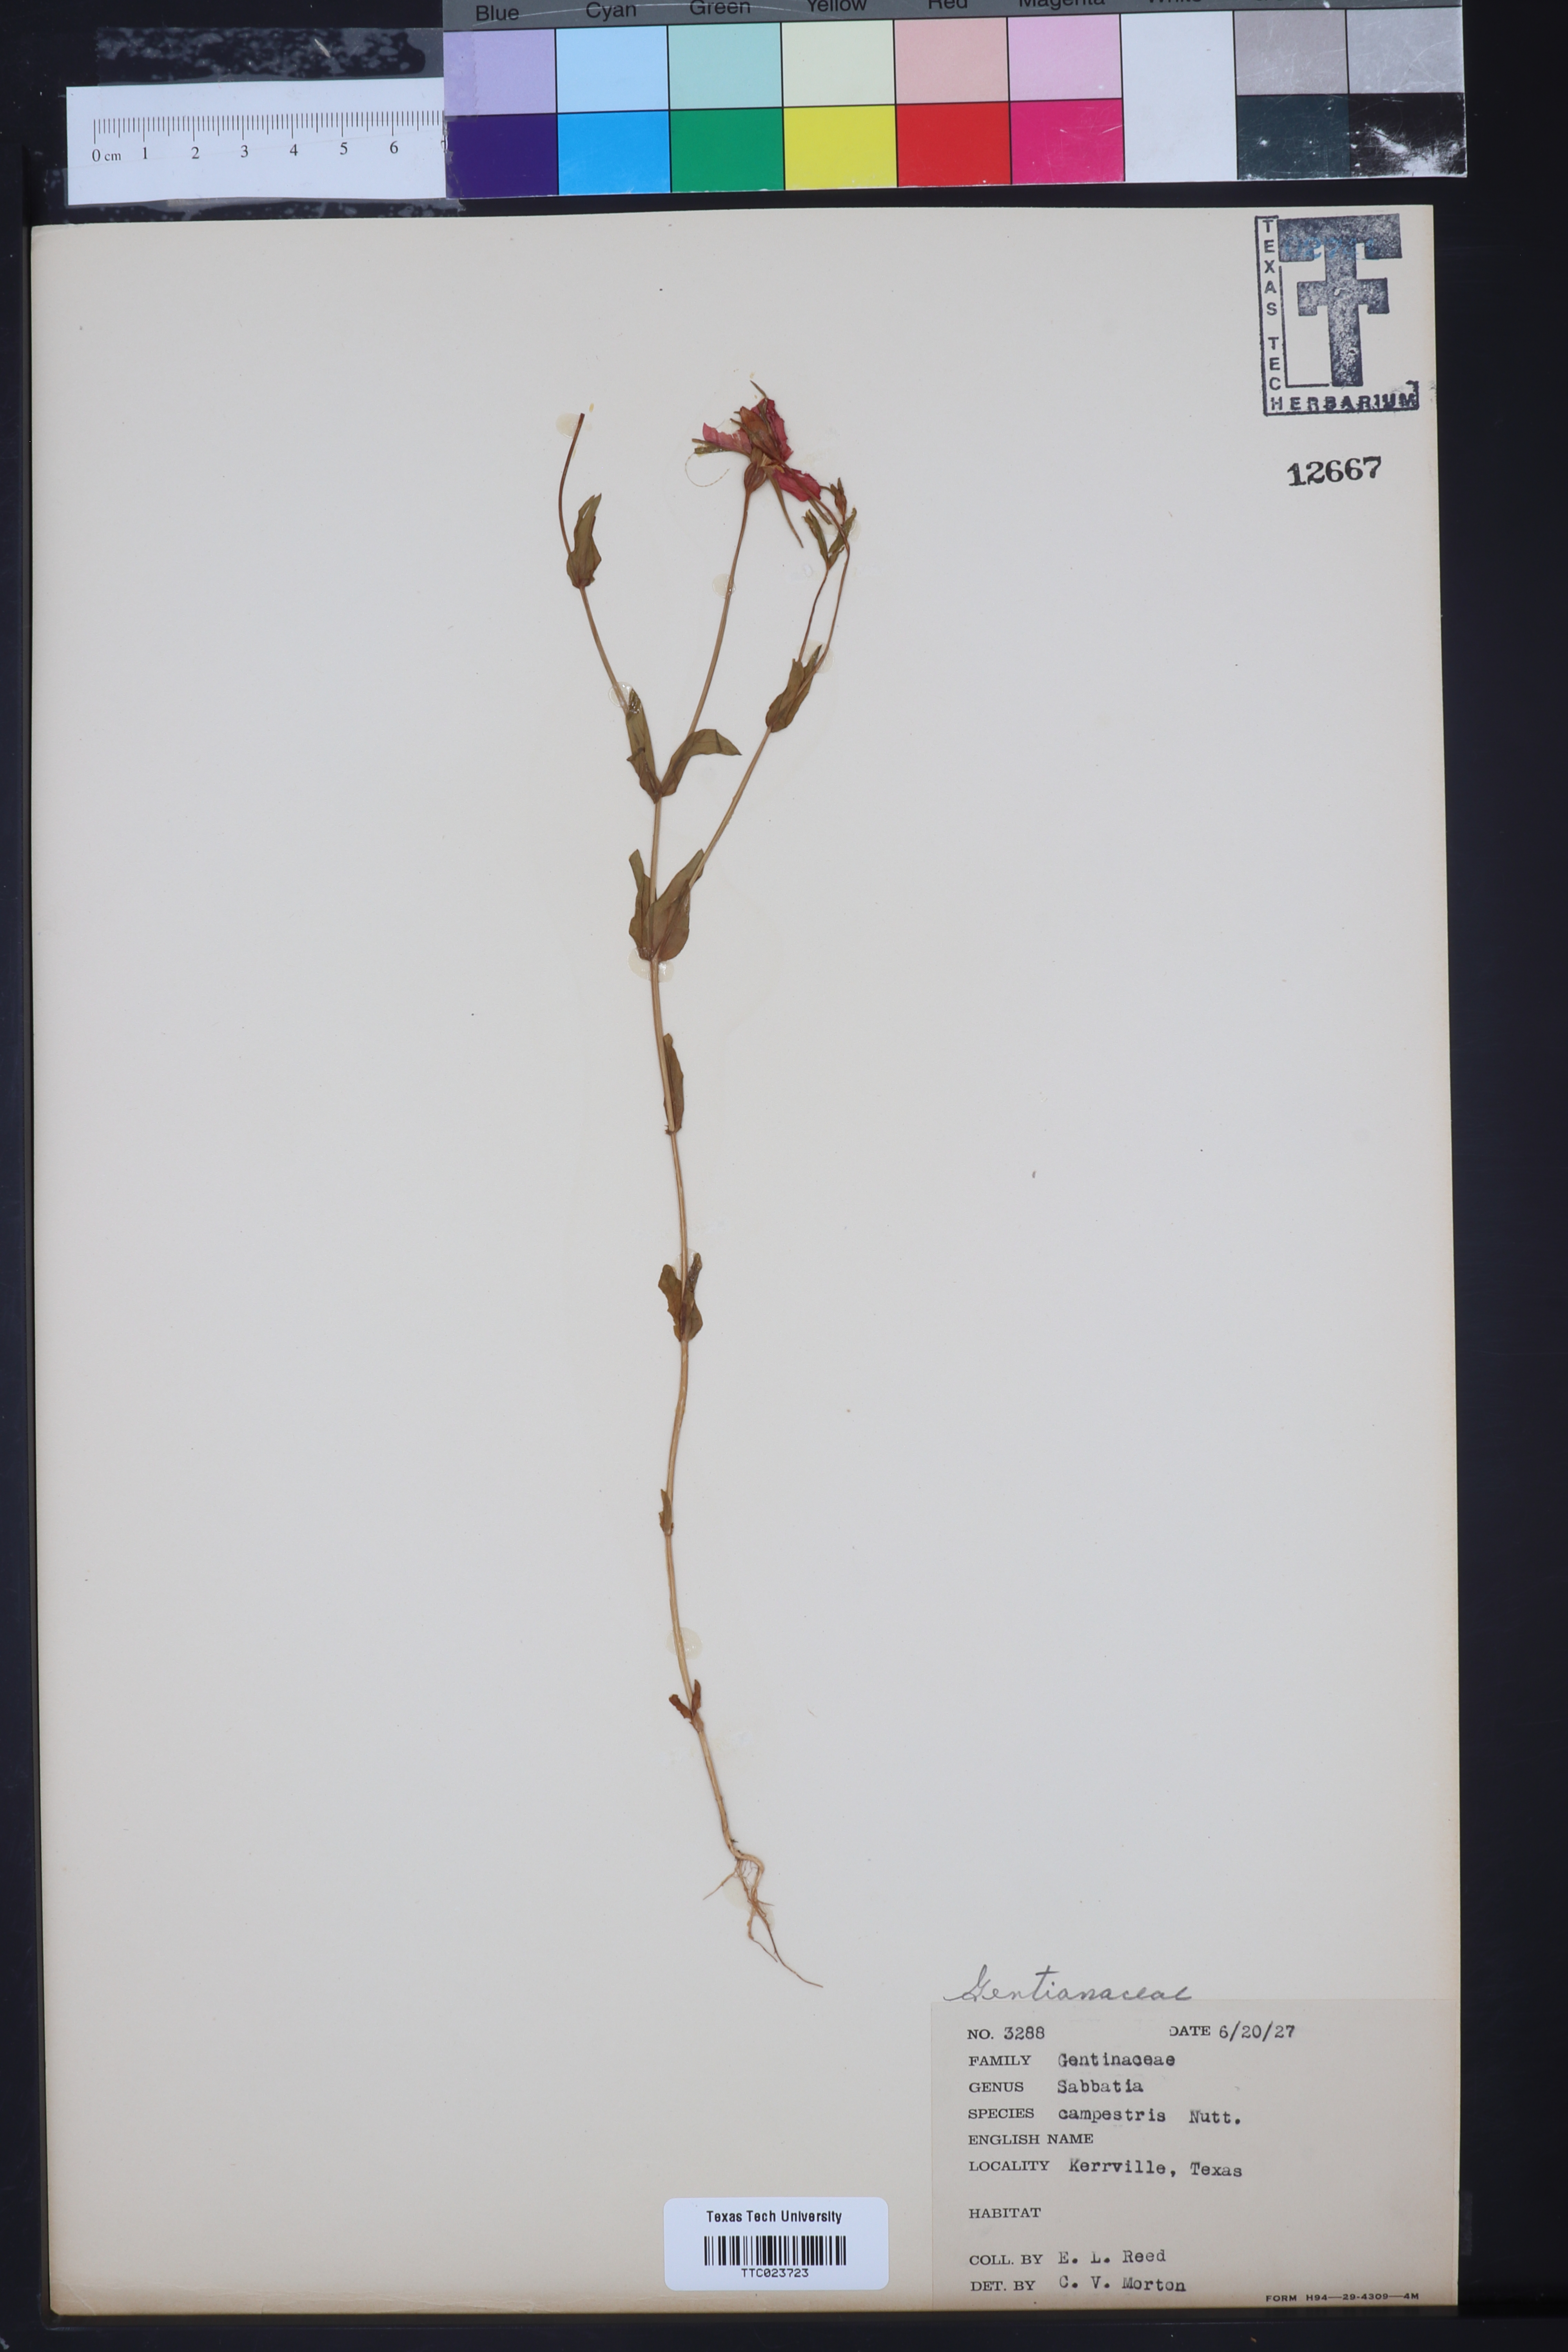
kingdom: Plantae
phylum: Tracheophyta
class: Magnoliopsida
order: Gentianales
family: Gentianaceae
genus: Sabatia
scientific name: Sabatia campestris
